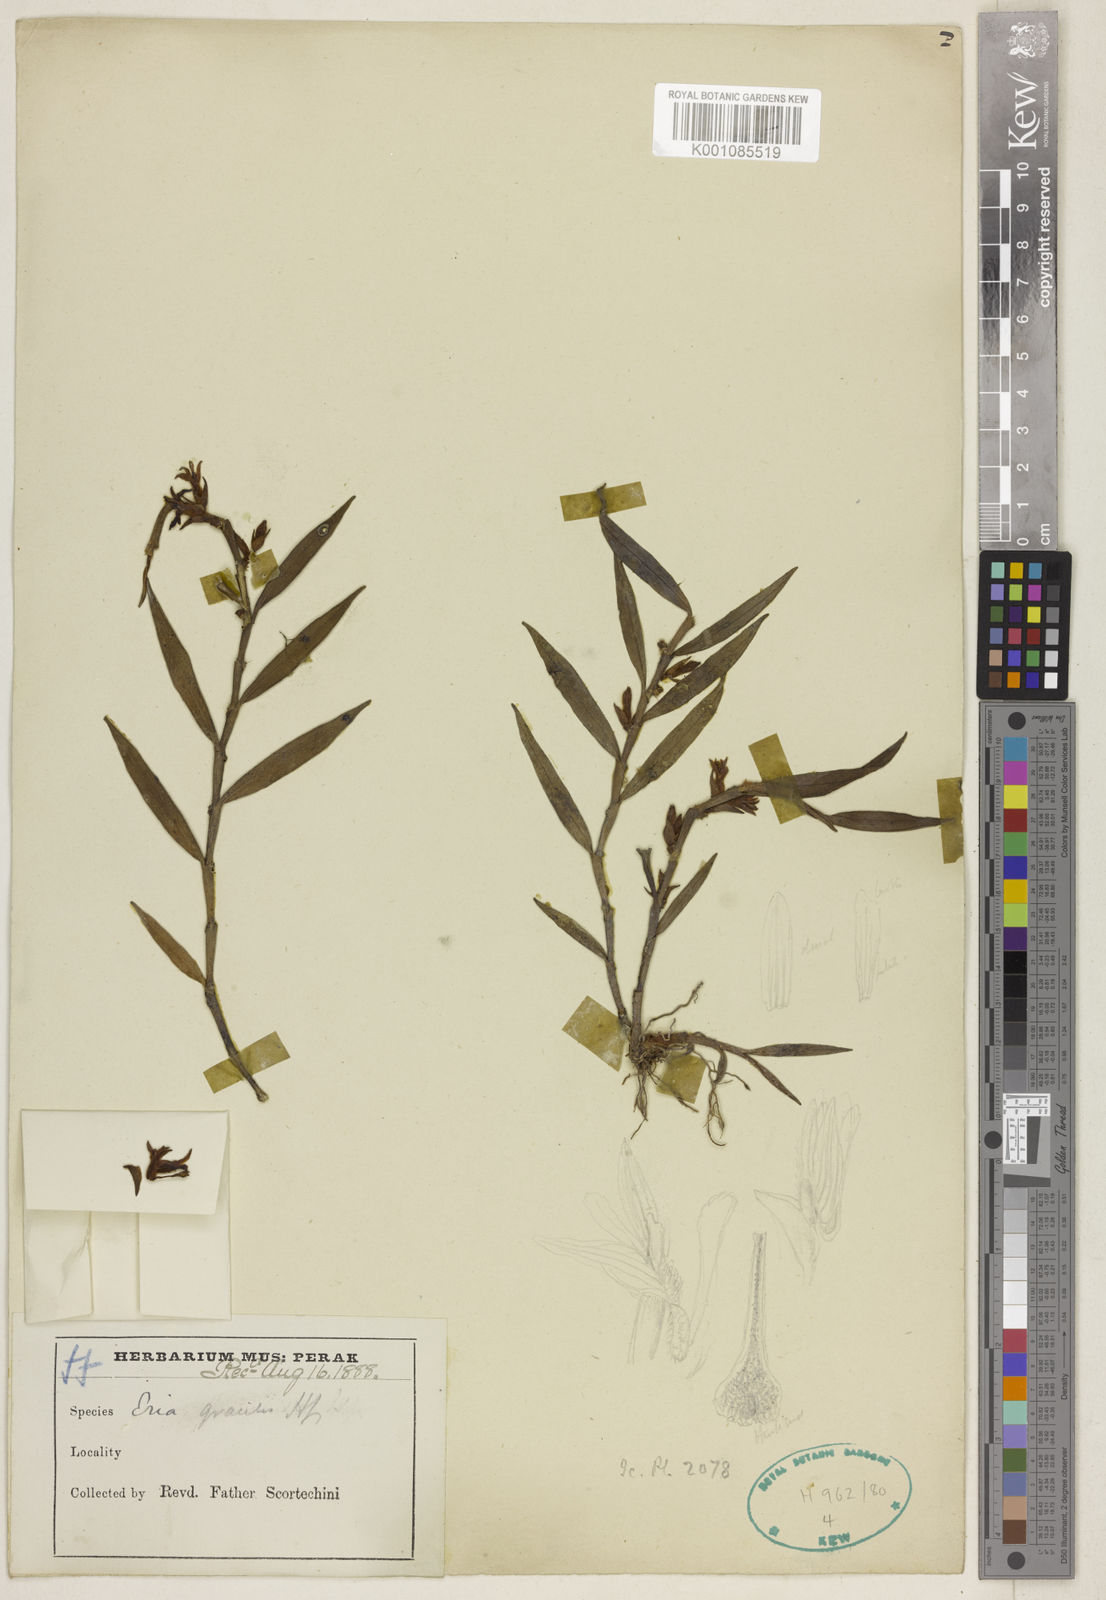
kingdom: Plantae
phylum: Tracheophyta
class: Liliopsida
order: Asparagales
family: Orchidaceae
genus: Trichotosia
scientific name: Trichotosia gracilis
